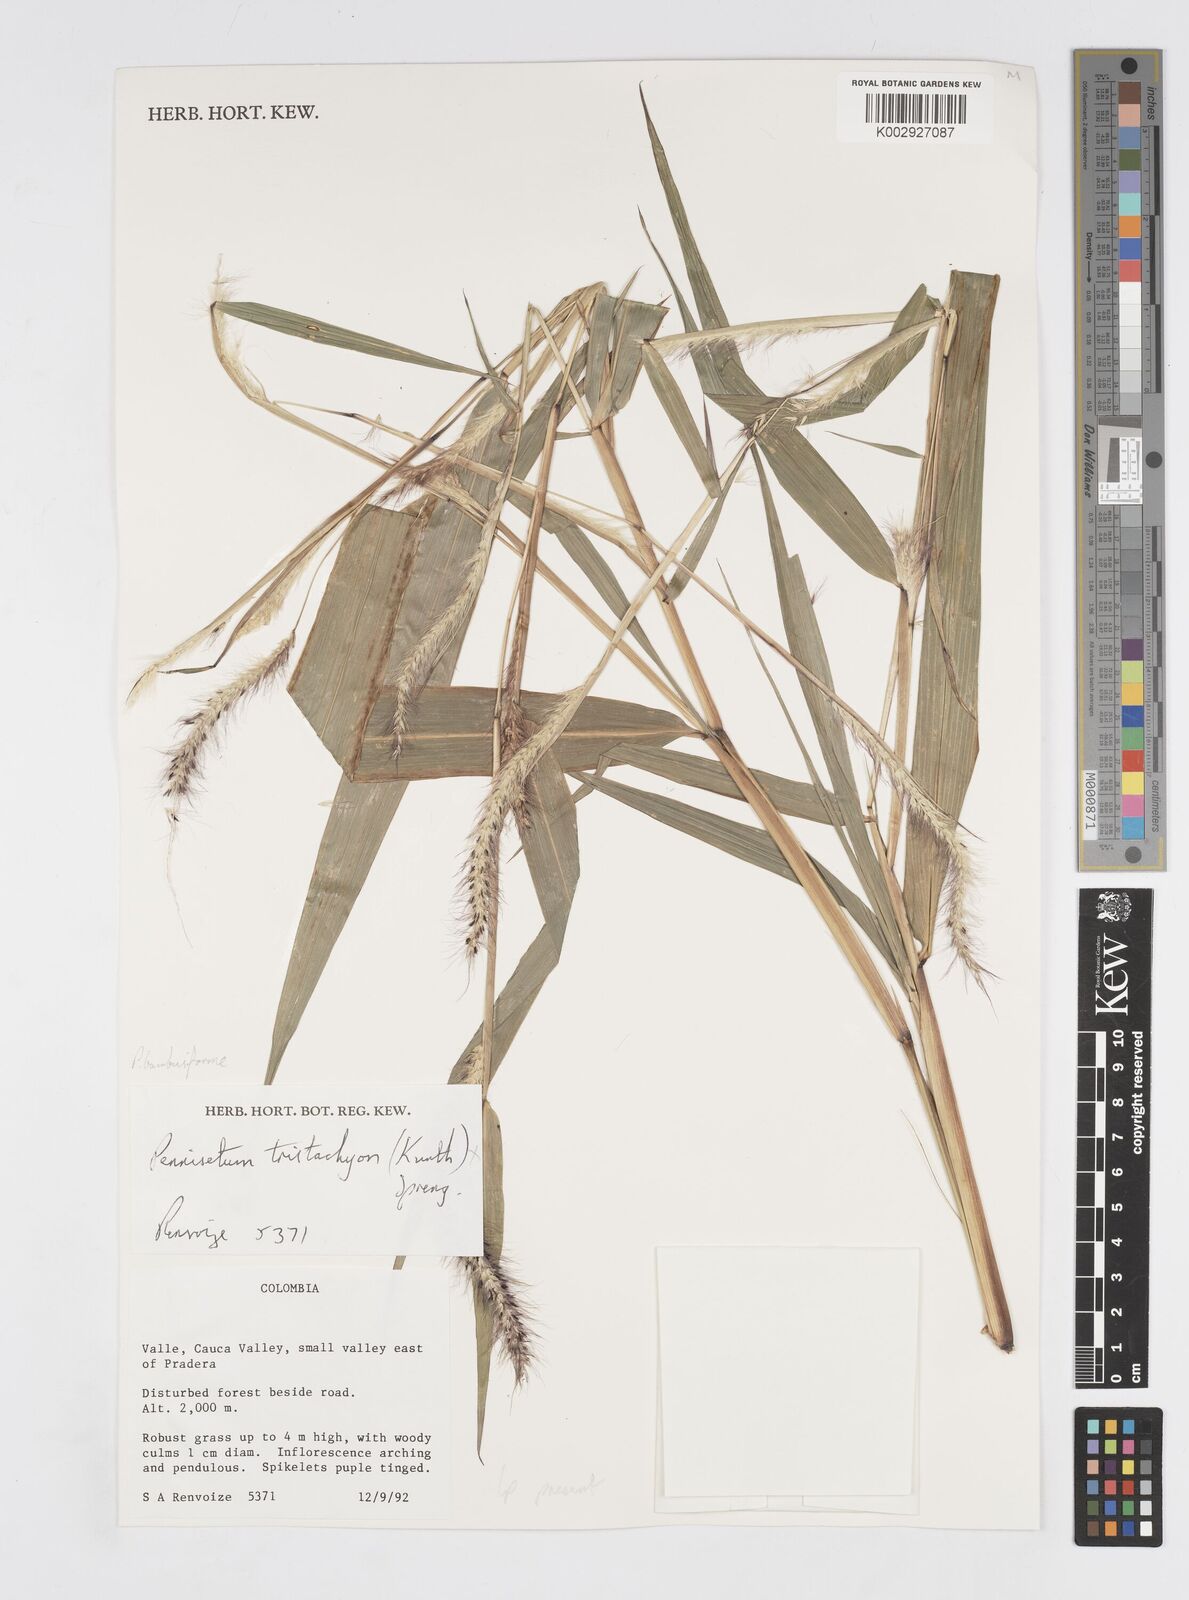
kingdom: Plantae
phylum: Tracheophyta
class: Liliopsida
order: Poales
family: Poaceae
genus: Cenchrus
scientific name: Cenchrus tristachyus
